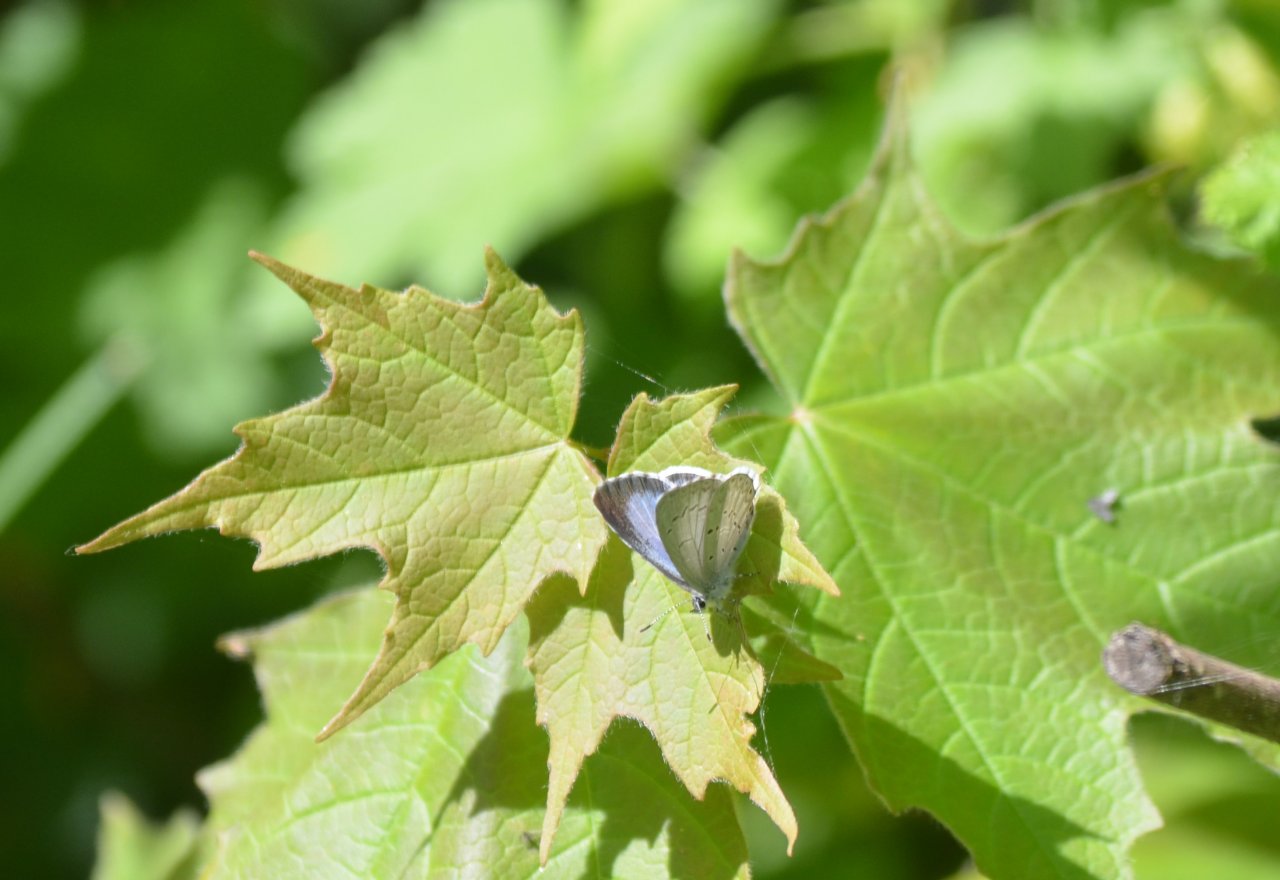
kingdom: Animalia
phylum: Arthropoda
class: Insecta
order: Lepidoptera
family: Lycaenidae
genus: Celastrina
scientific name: Celastrina lucia
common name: Northern Spring Azure
